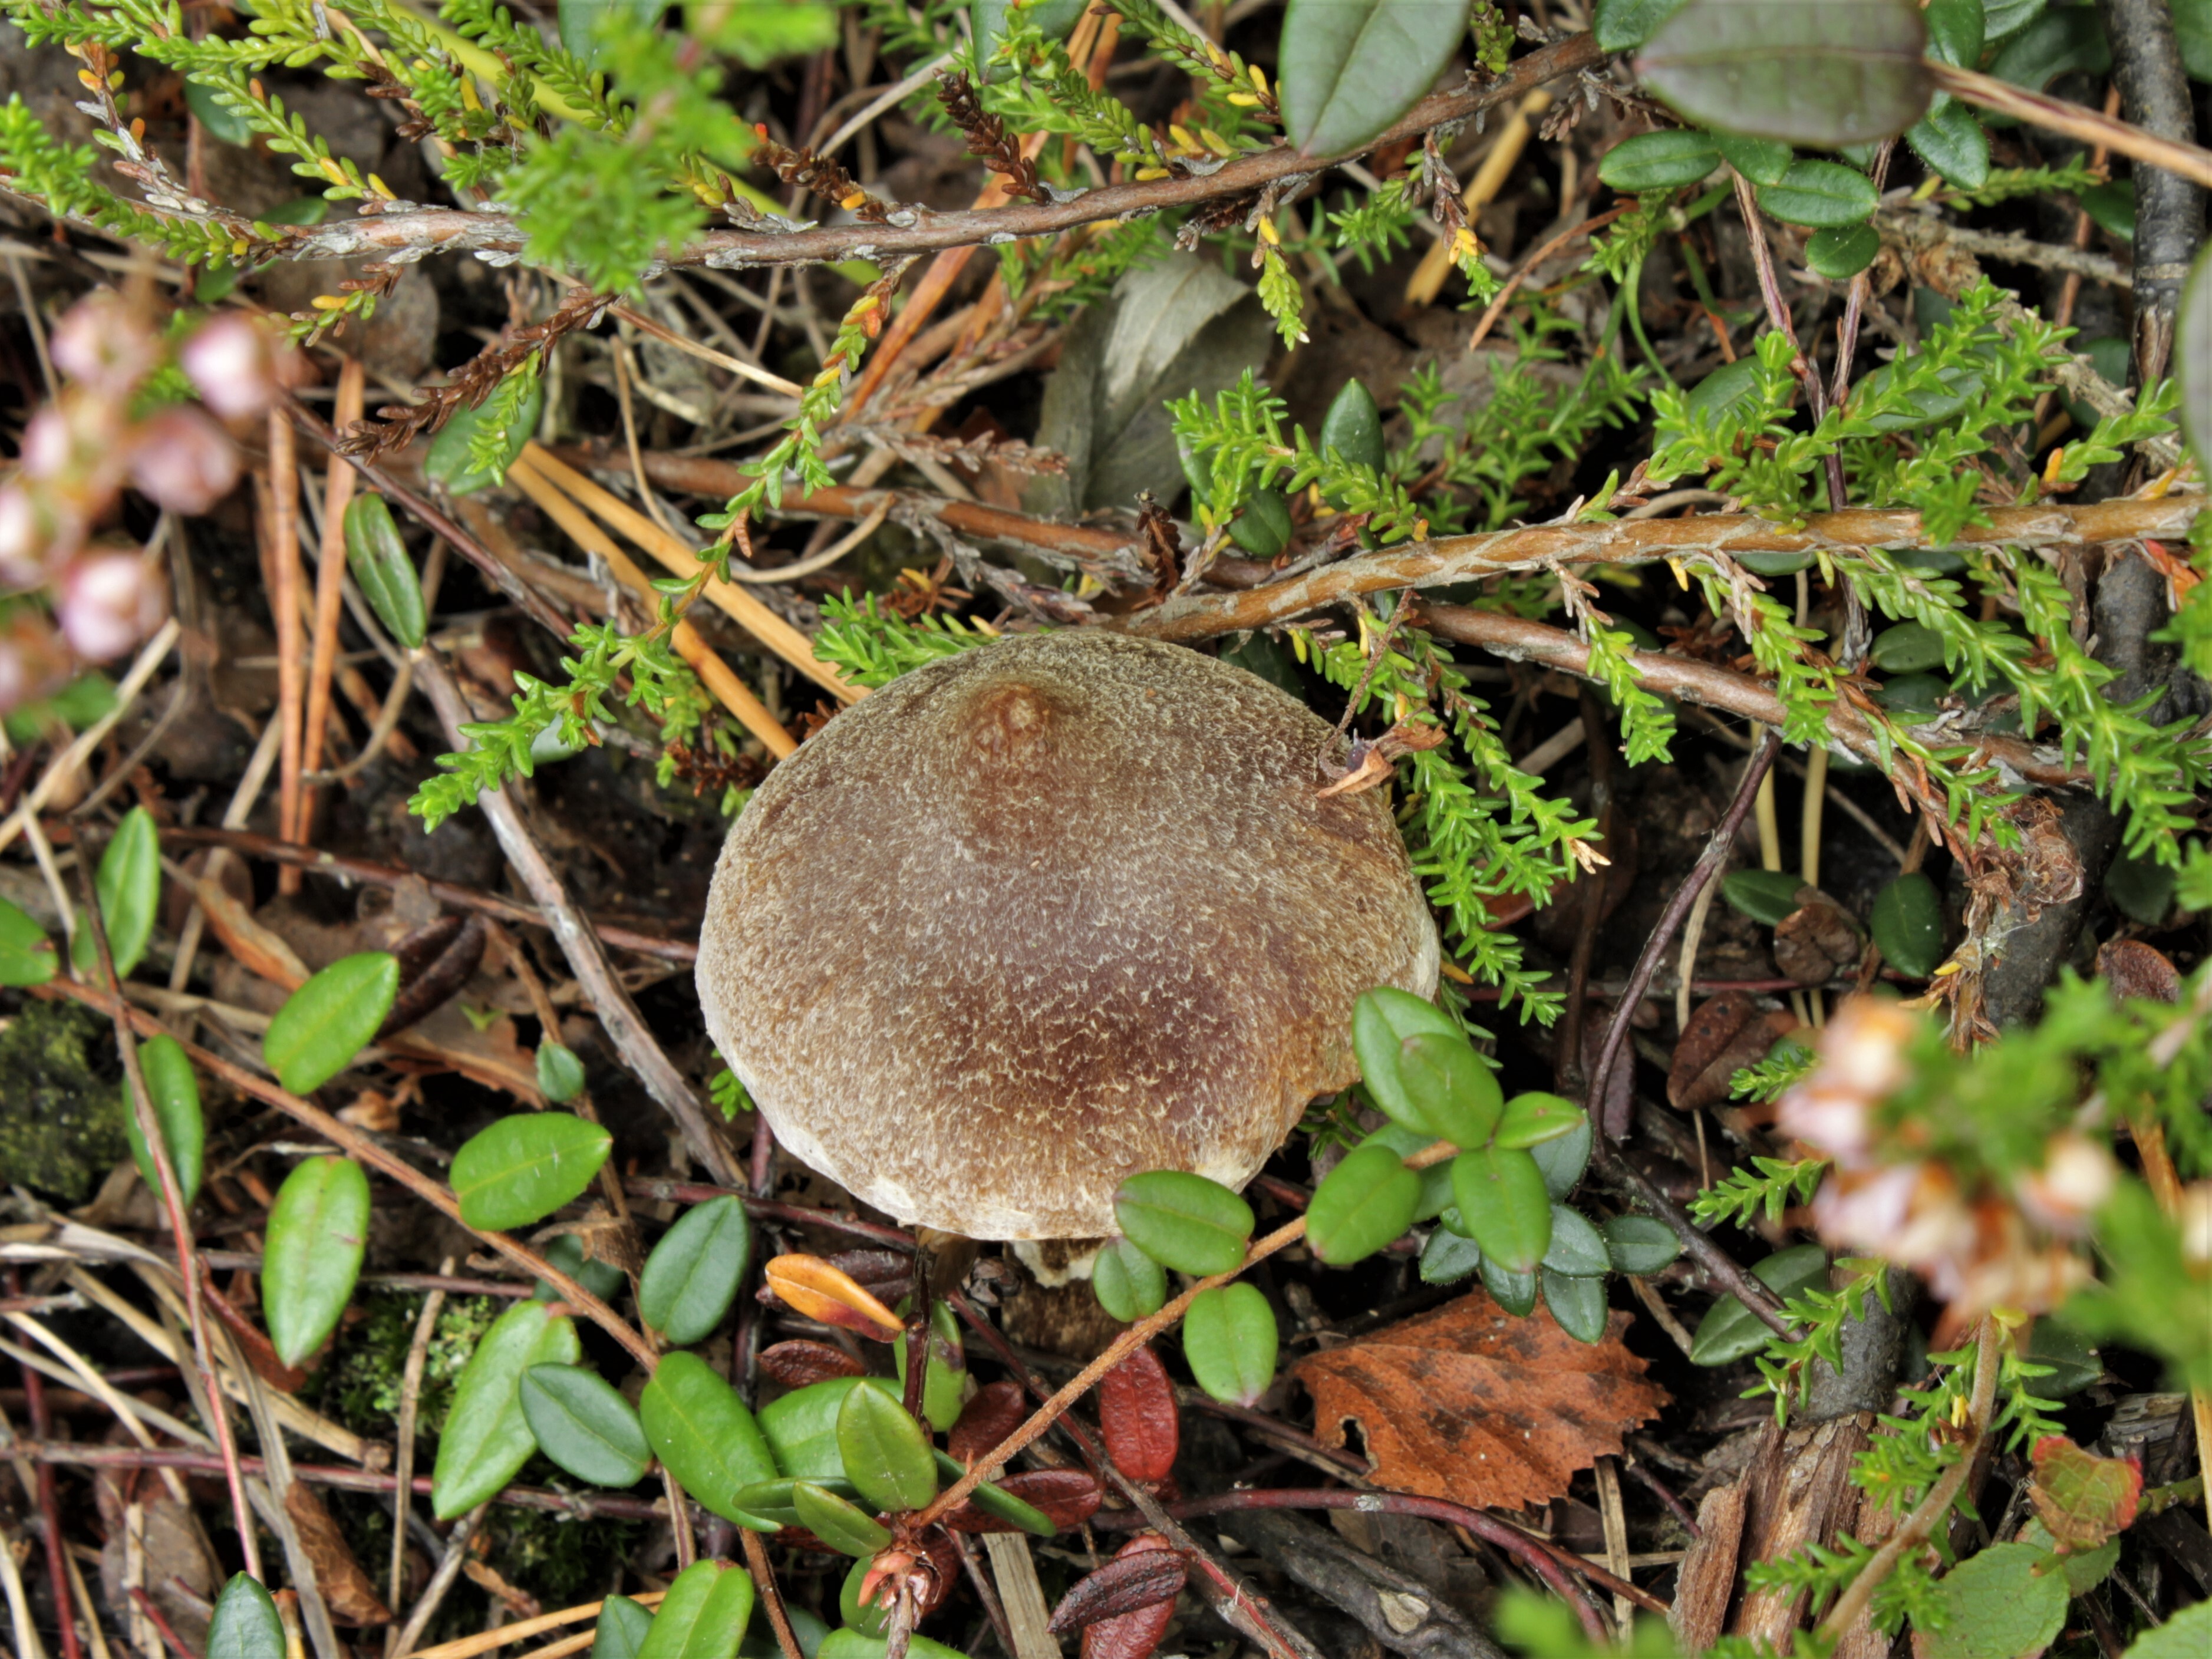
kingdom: Fungi
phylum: Basidiomycota
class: Agaricomycetes
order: Agaricales
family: Cortinariaceae
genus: Cortinarius
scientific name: Cortinarius hemitrichus
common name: Frosty webcap
